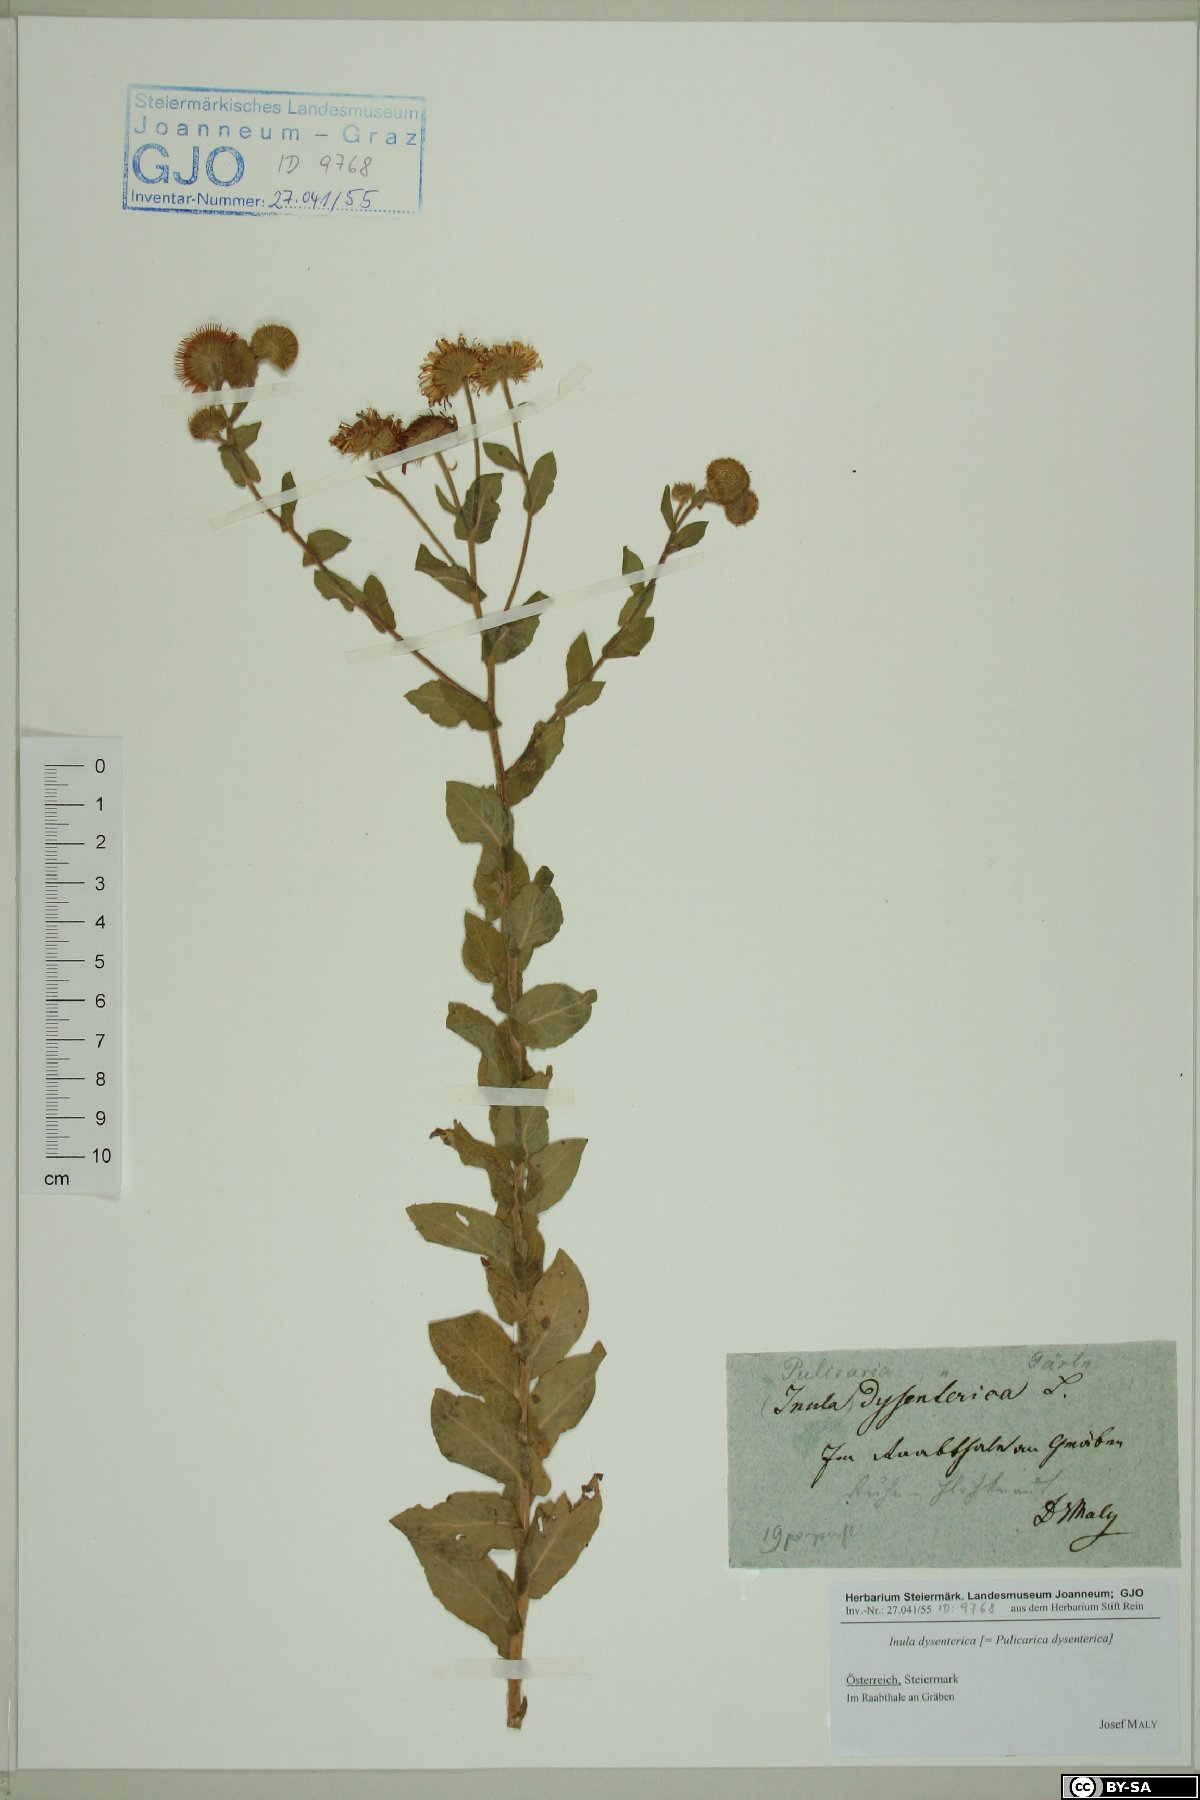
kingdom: Plantae
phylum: Tracheophyta
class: Magnoliopsida
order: Asterales
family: Asteraceae
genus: Pulicaria
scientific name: Pulicaria dysenterica
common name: Common fleabane
